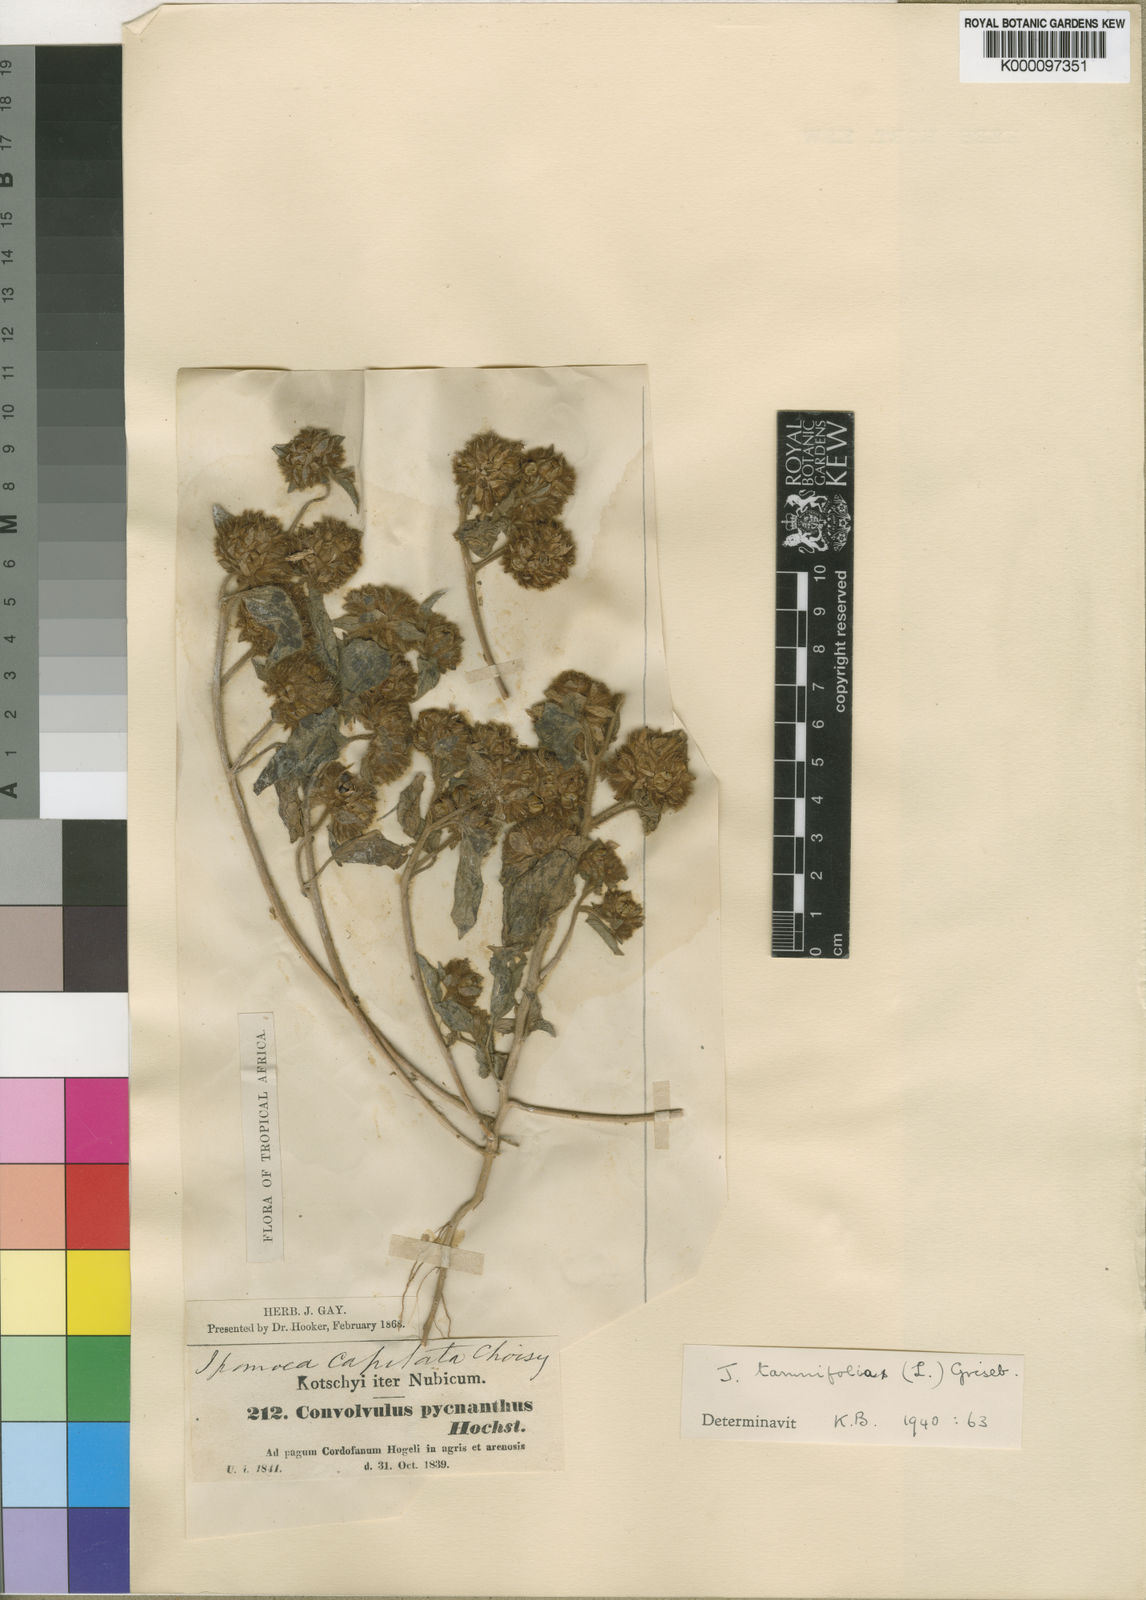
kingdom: Plantae
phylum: Tracheophyta
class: Magnoliopsida
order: Solanales
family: Convolvulaceae
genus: Jacquemontia
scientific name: Jacquemontia tamnifolia
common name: Hairy clustervine
